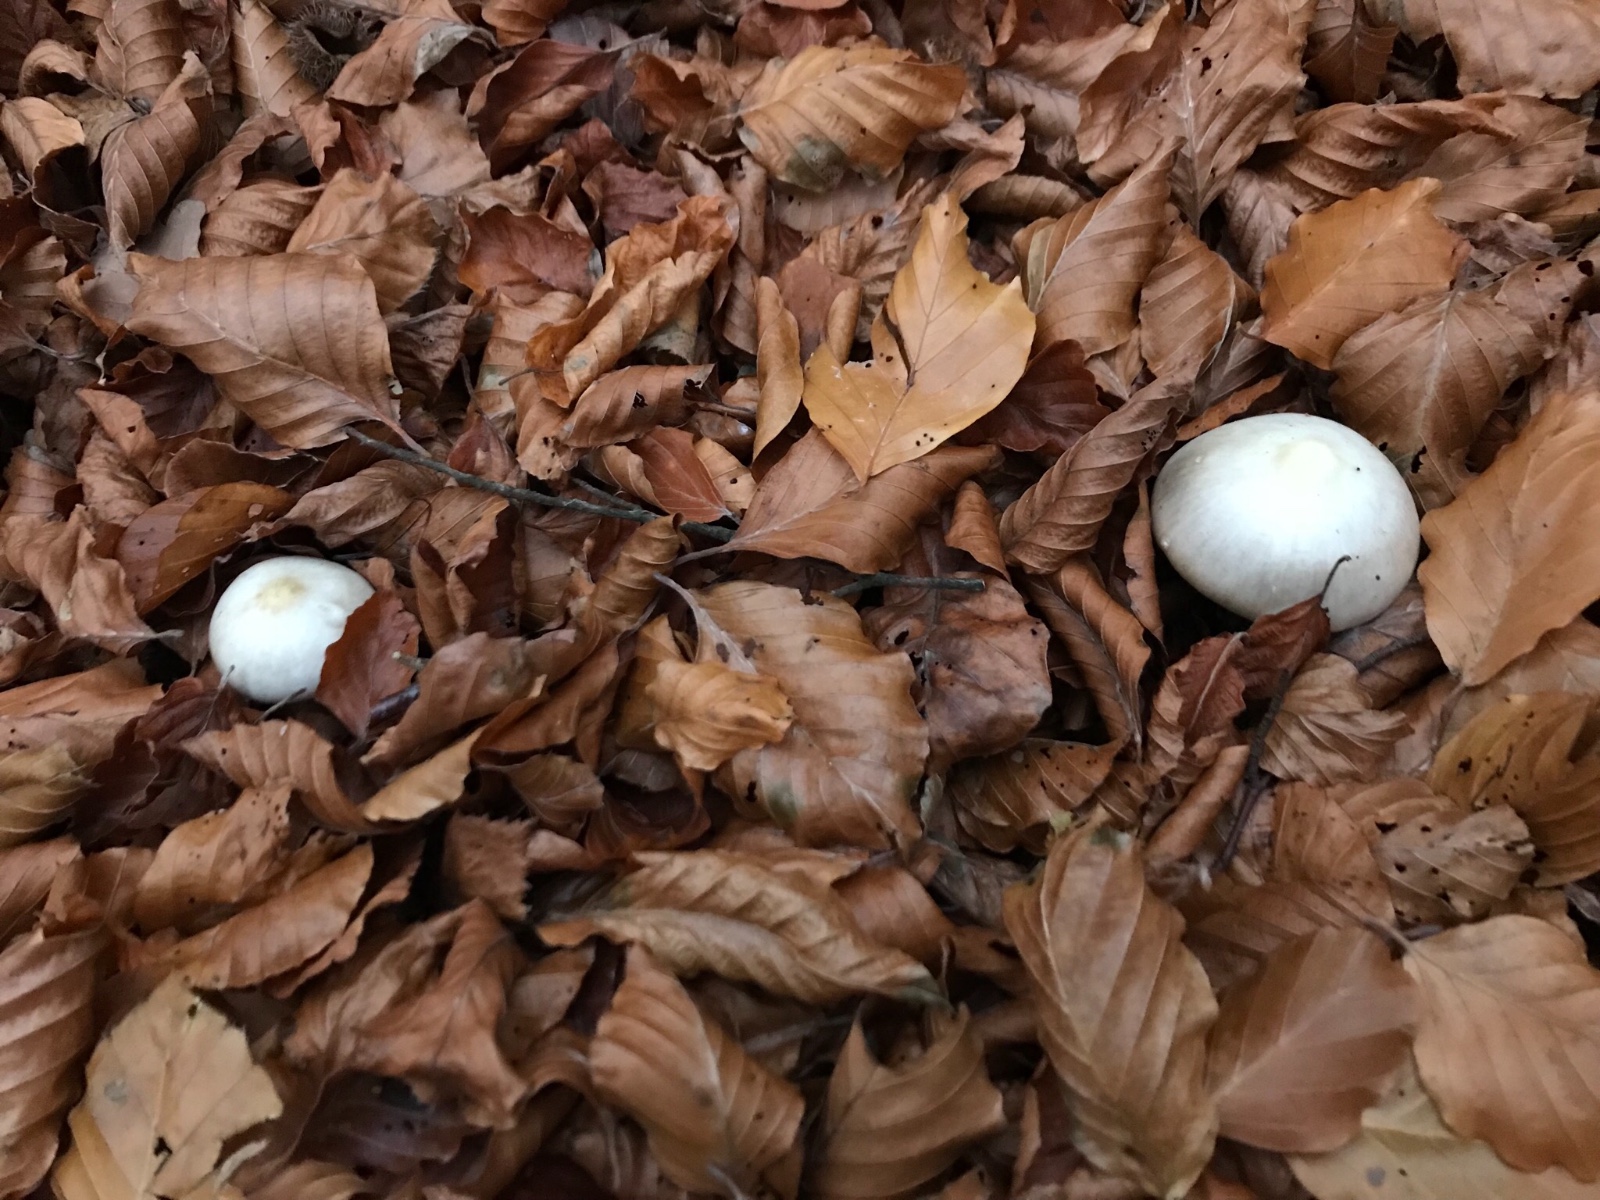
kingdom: Fungi
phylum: Basidiomycota
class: Agaricomycetes
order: Agaricales
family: Omphalotaceae
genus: Rhodocollybia
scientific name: Rhodocollybia asema
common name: horngrå fladhat
